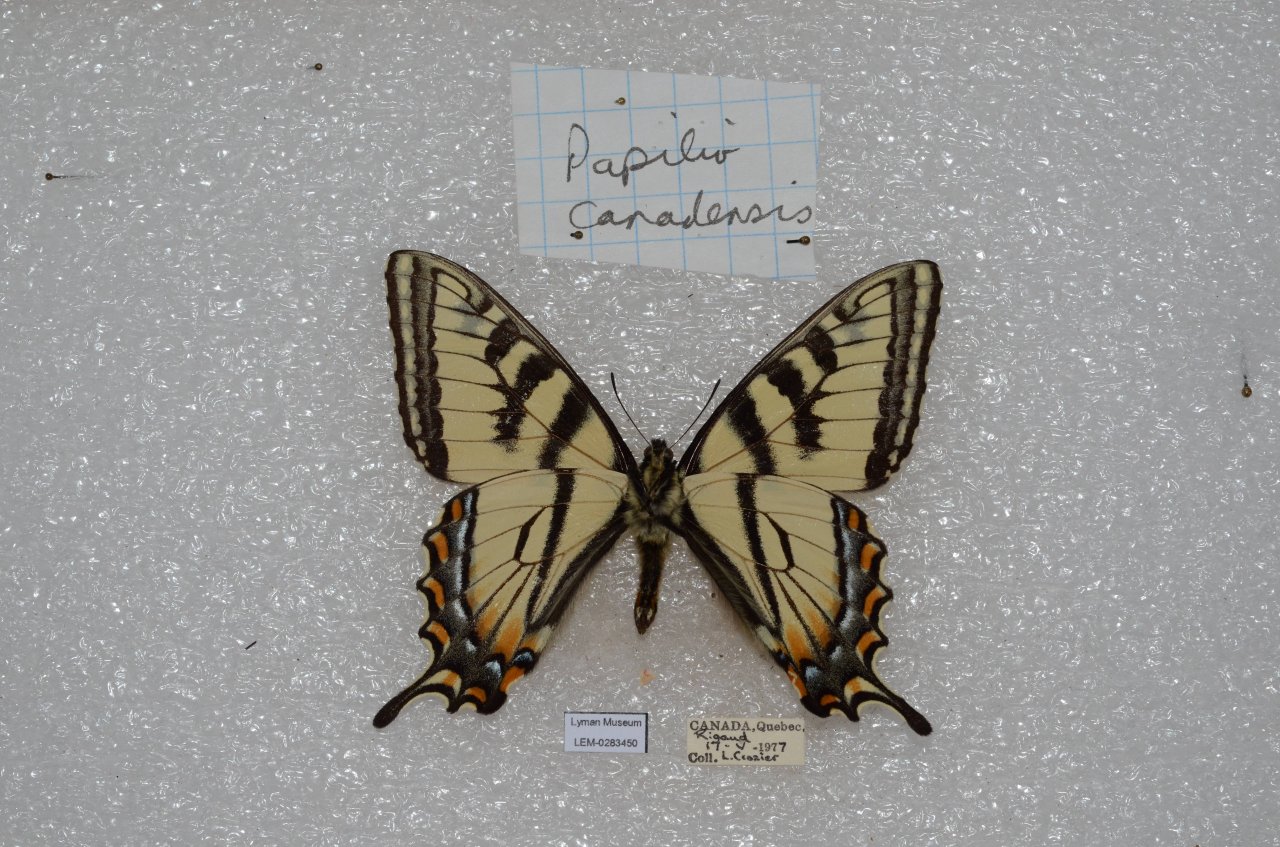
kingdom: Animalia
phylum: Arthropoda
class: Insecta
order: Lepidoptera
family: Papilionidae
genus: Pterourus
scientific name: Pterourus canadensis
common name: Canadian Tiger Swallowtail
